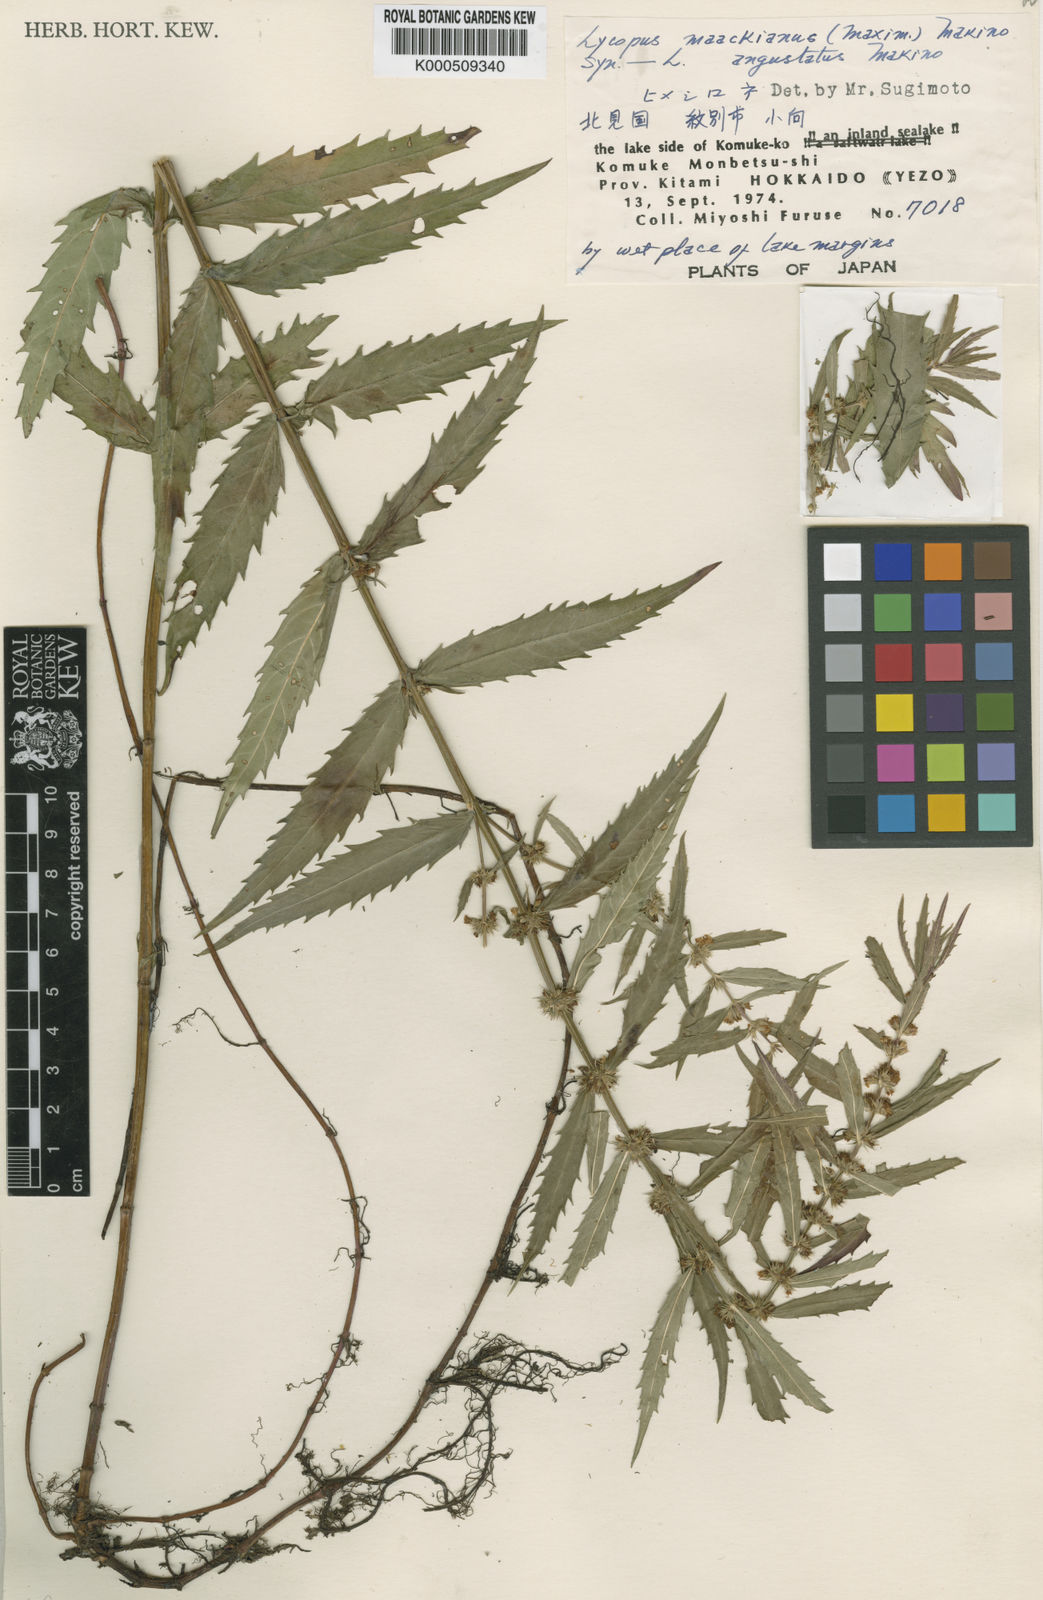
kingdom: Plantae
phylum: Tracheophyta
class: Magnoliopsida
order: Lamiales
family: Lamiaceae
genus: Lycopus
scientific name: Lycopus lucidus
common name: Shiny bugleweed
